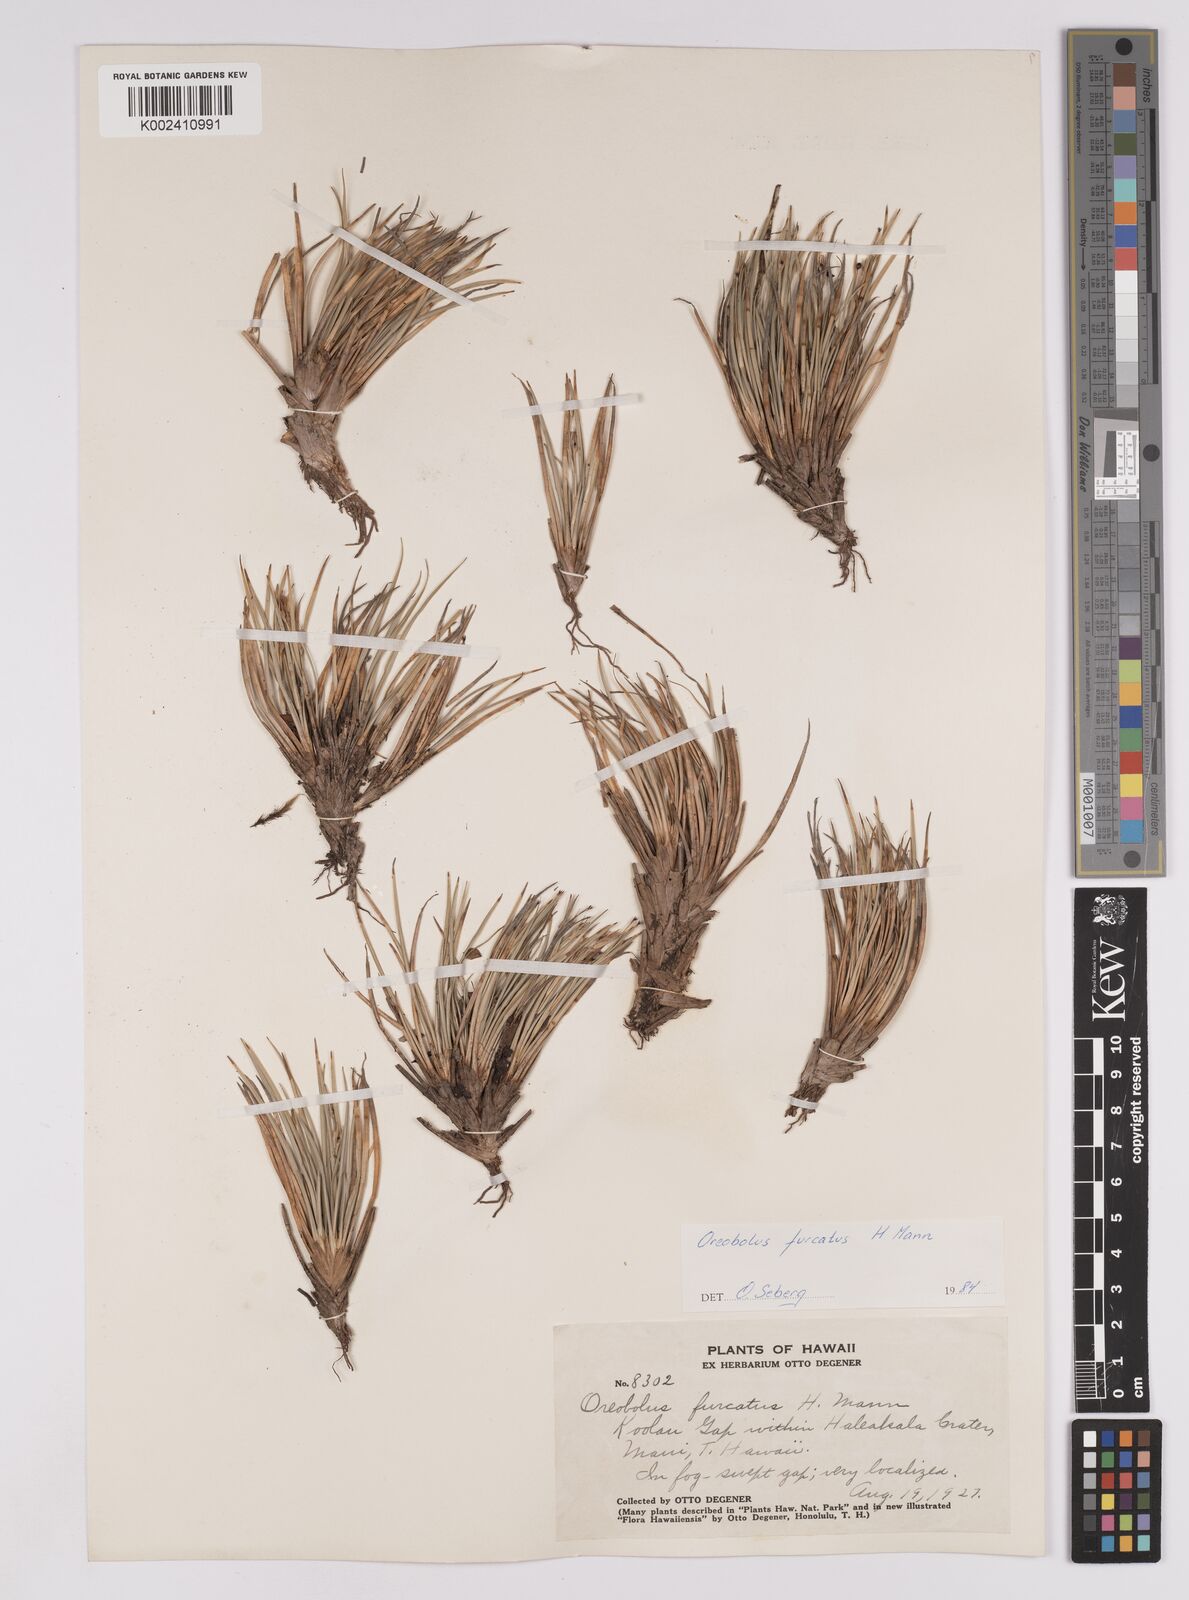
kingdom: Plantae
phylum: Tracheophyta
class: Liliopsida
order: Poales
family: Cyperaceae
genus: Oreobolus
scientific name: Oreobolus furcatus
